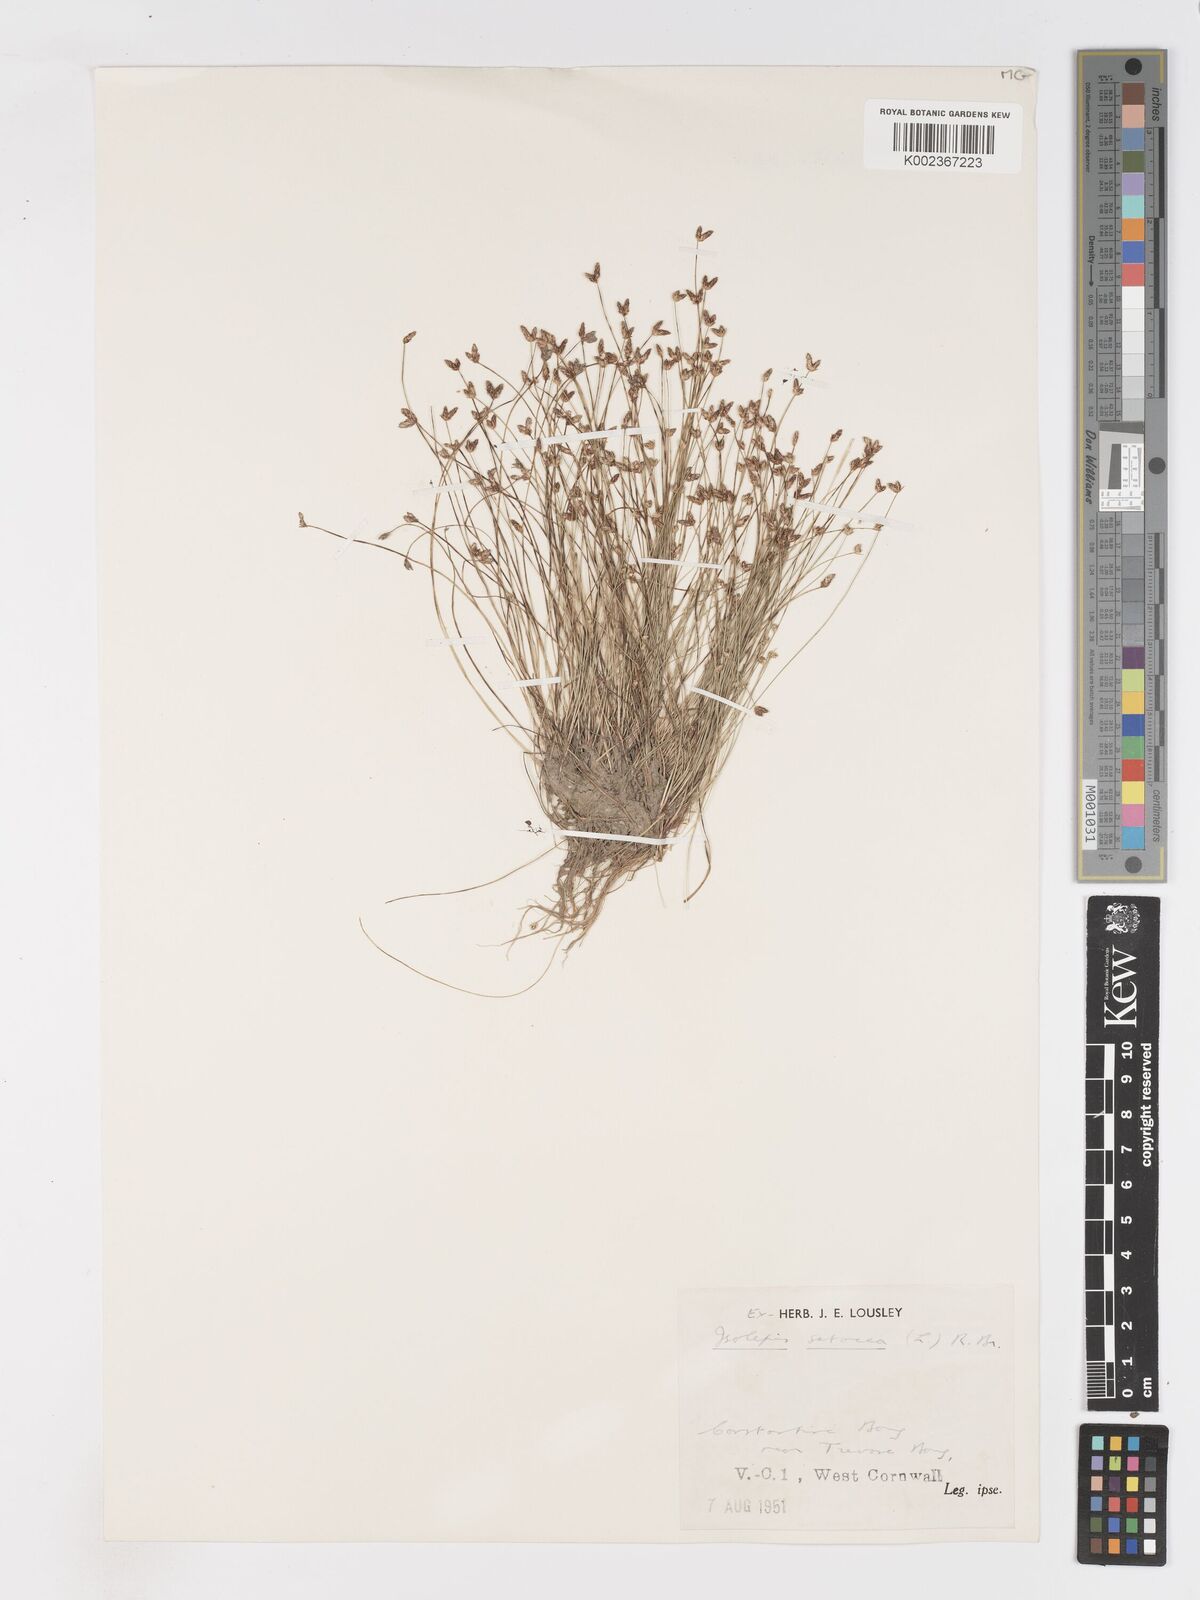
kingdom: Plantae
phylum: Tracheophyta
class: Liliopsida
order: Poales
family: Cyperaceae
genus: Isolepis
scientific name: Isolepis cernua
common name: Slender club-rush
